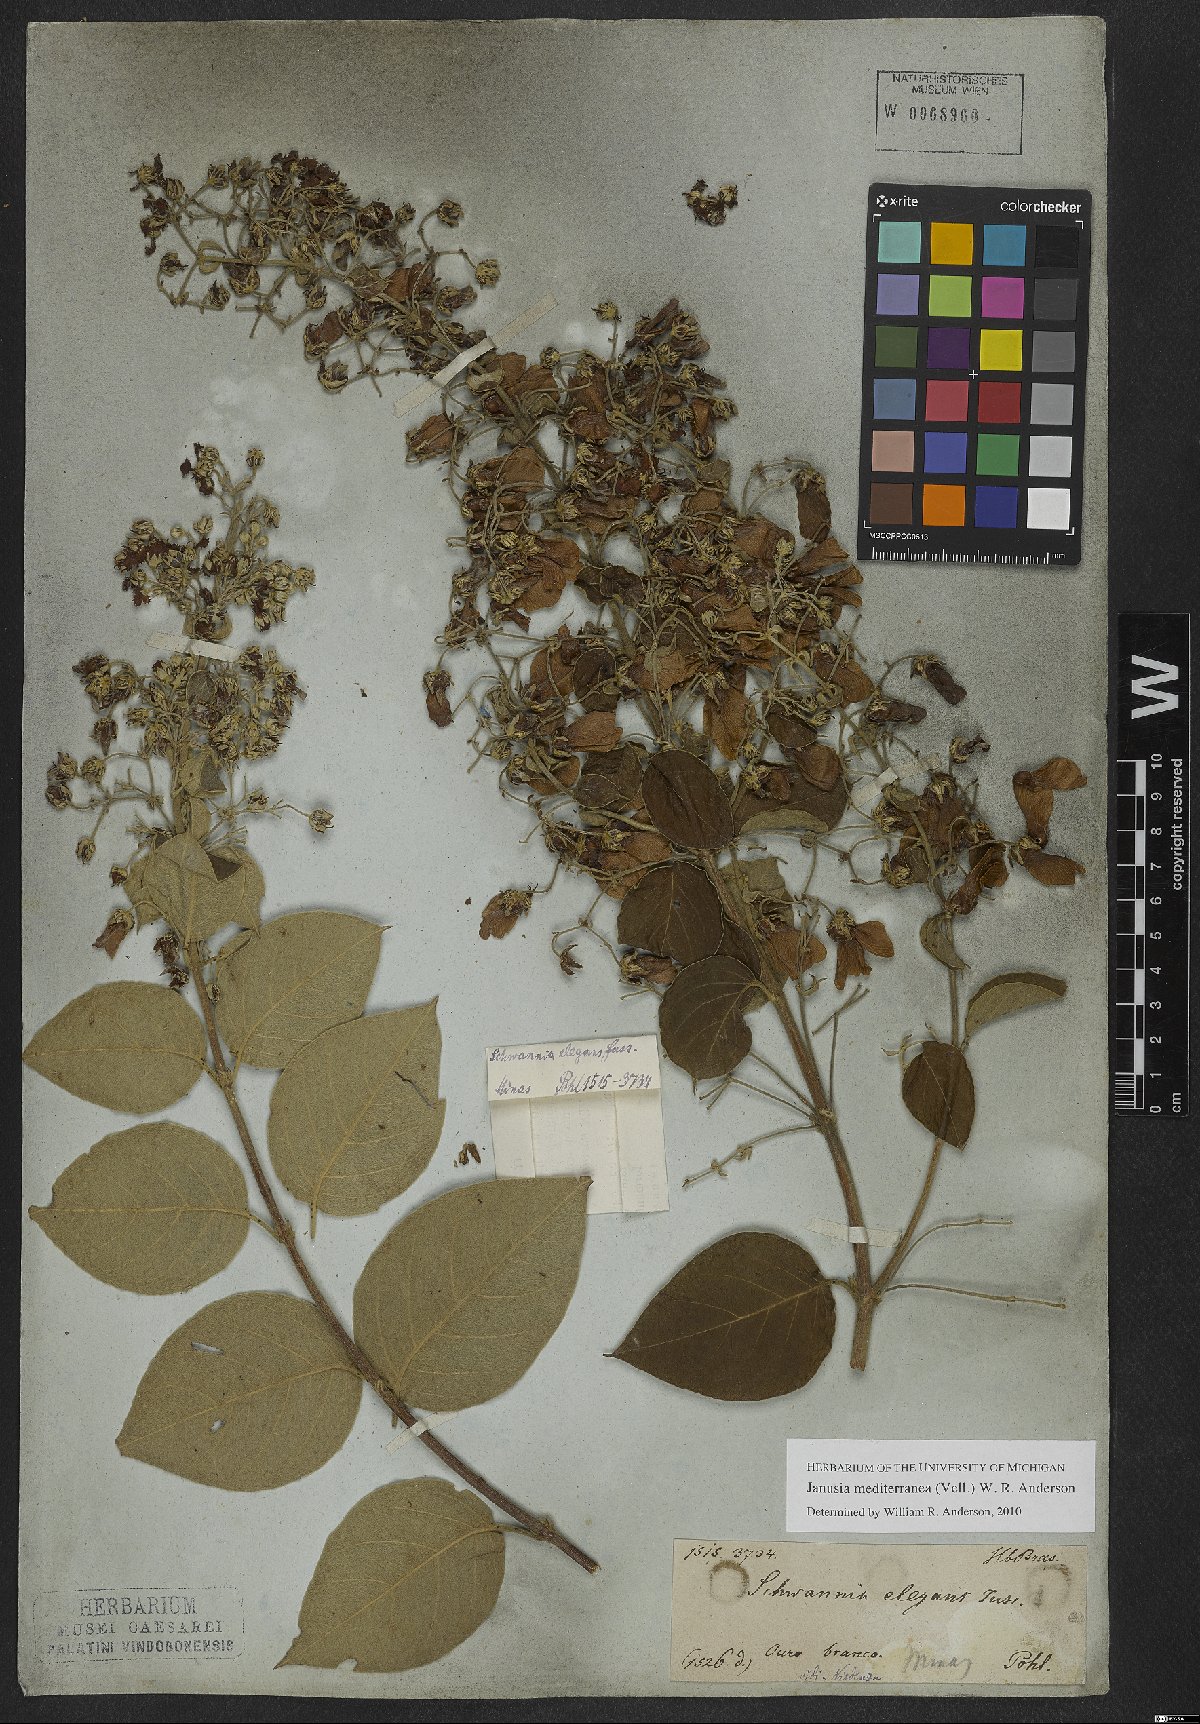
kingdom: Plantae
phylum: Tracheophyta
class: Magnoliopsida
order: Malpighiales
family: Malpighiaceae
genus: Janusia
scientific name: Janusia mediterranea
